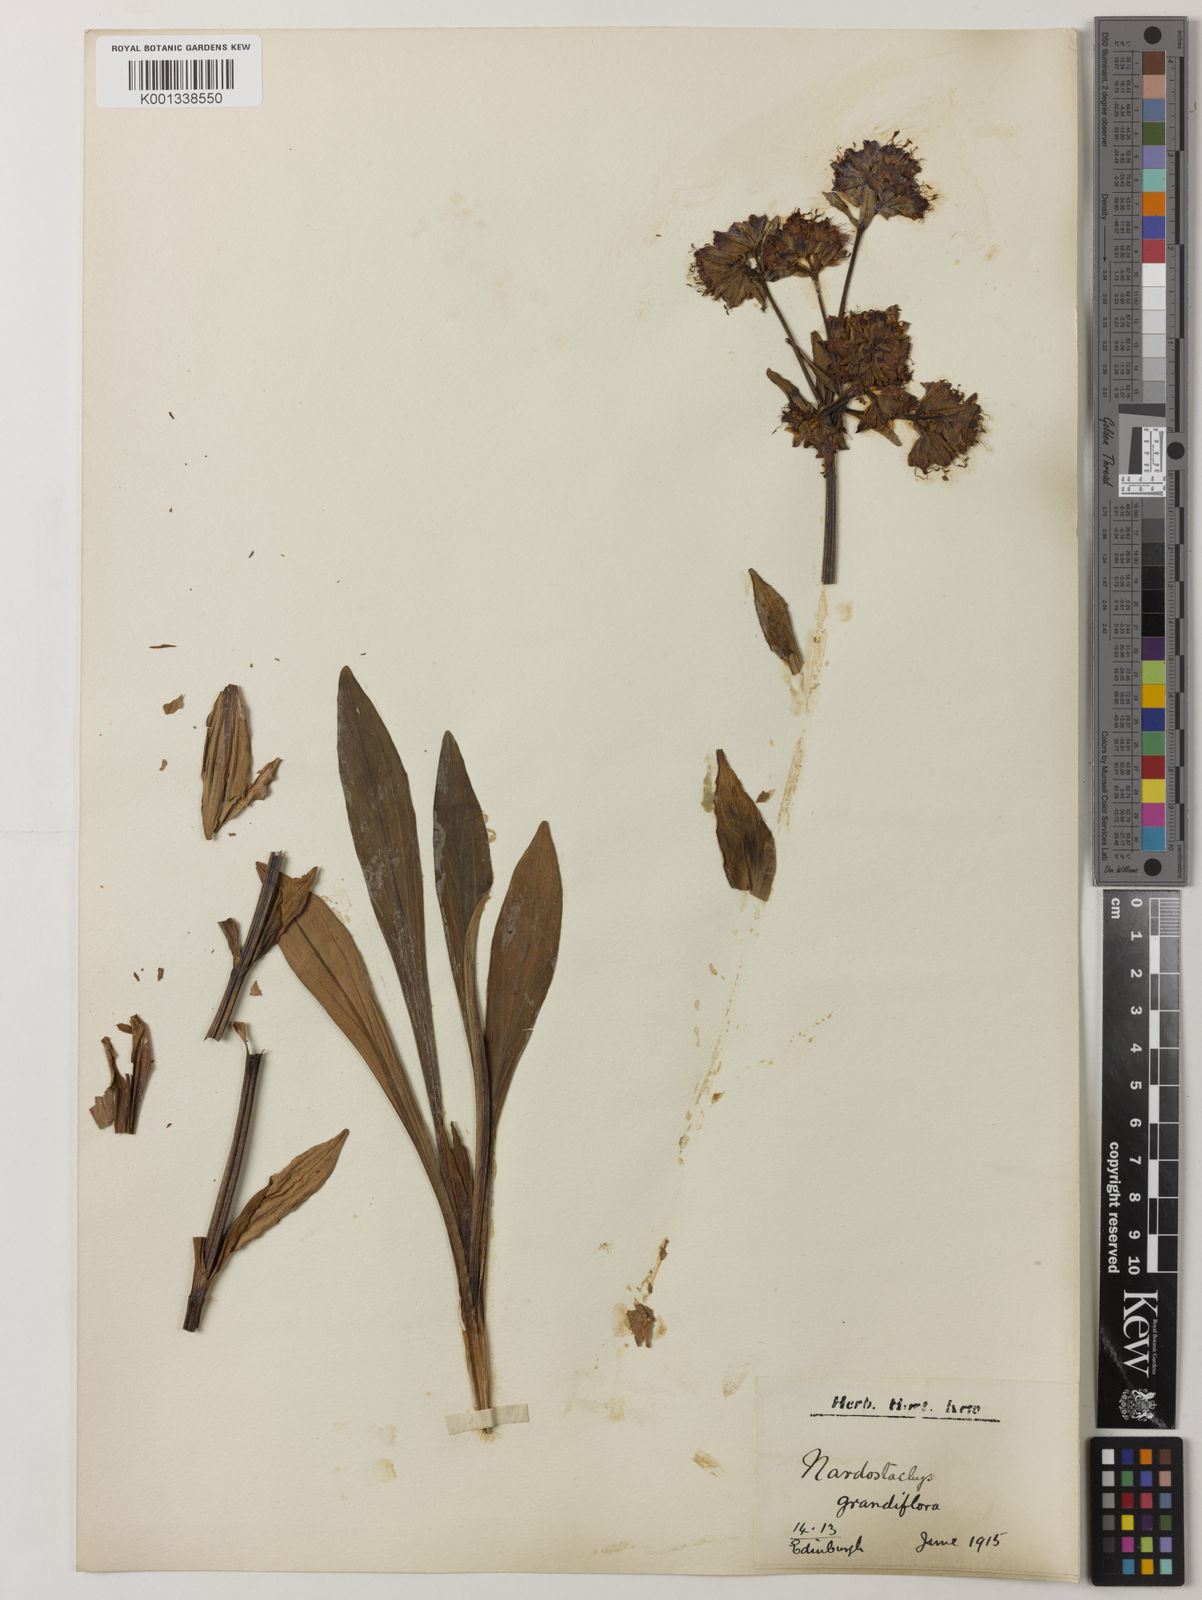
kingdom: Plantae
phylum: Tracheophyta
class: Magnoliopsida
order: Dipsacales
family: Caprifoliaceae
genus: Nardostachys
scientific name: Nardostachys jatamansi
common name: Indian nard
